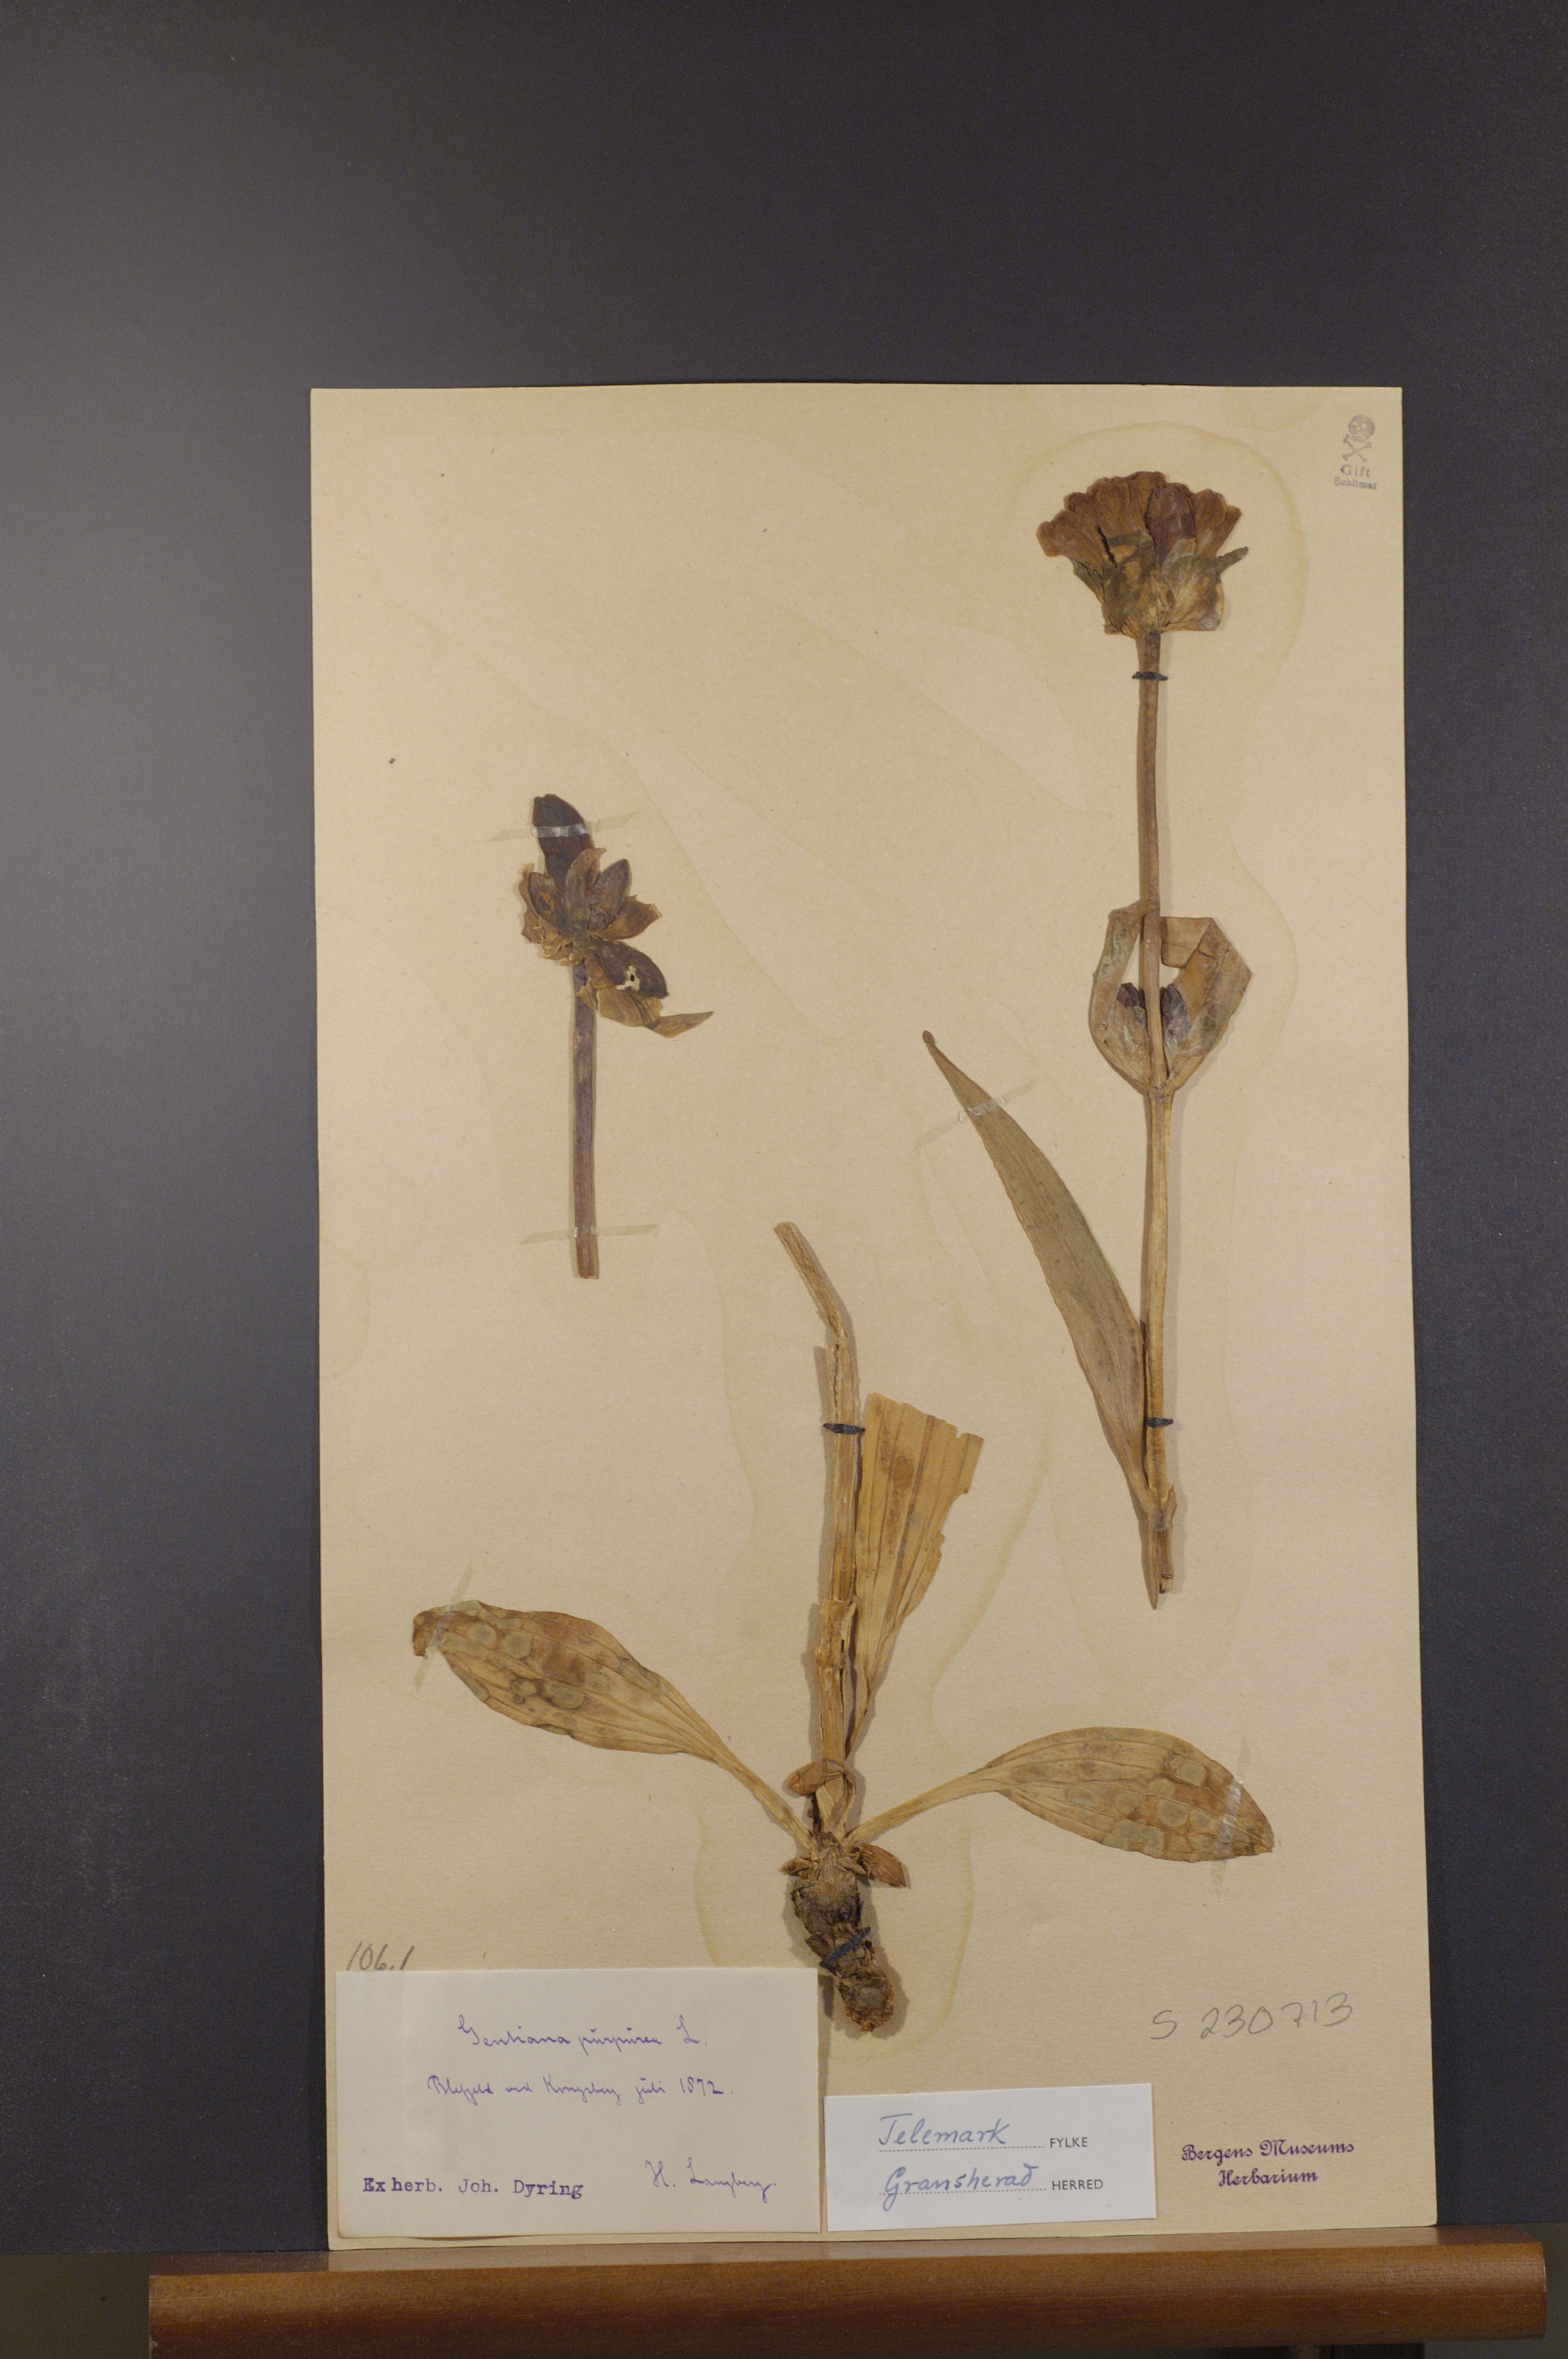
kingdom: Plantae
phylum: Tracheophyta
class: Magnoliopsida
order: Gentianales
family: Gentianaceae
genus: Gentiana
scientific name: Gentiana purpurea
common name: Purple gentian
